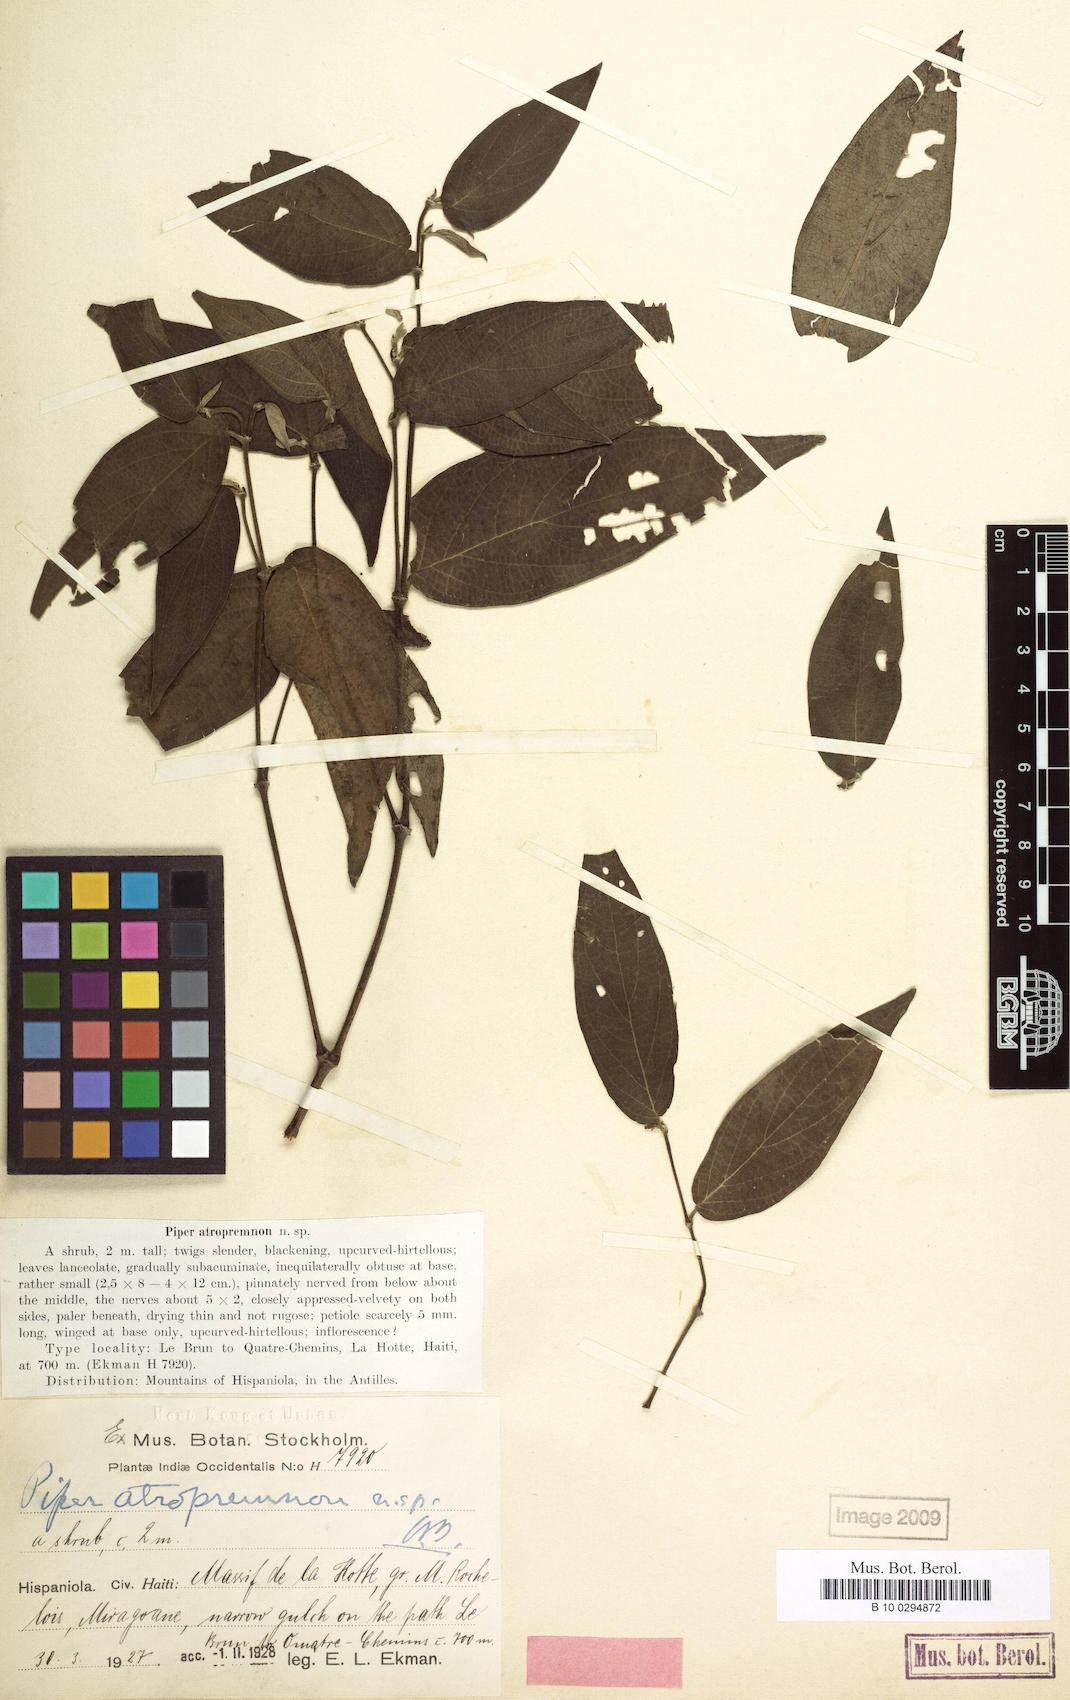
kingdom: Plantae
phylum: Tracheophyta
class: Magnoliopsida
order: Piperales
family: Piperaceae
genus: Piper
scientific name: Piper atropremnon
